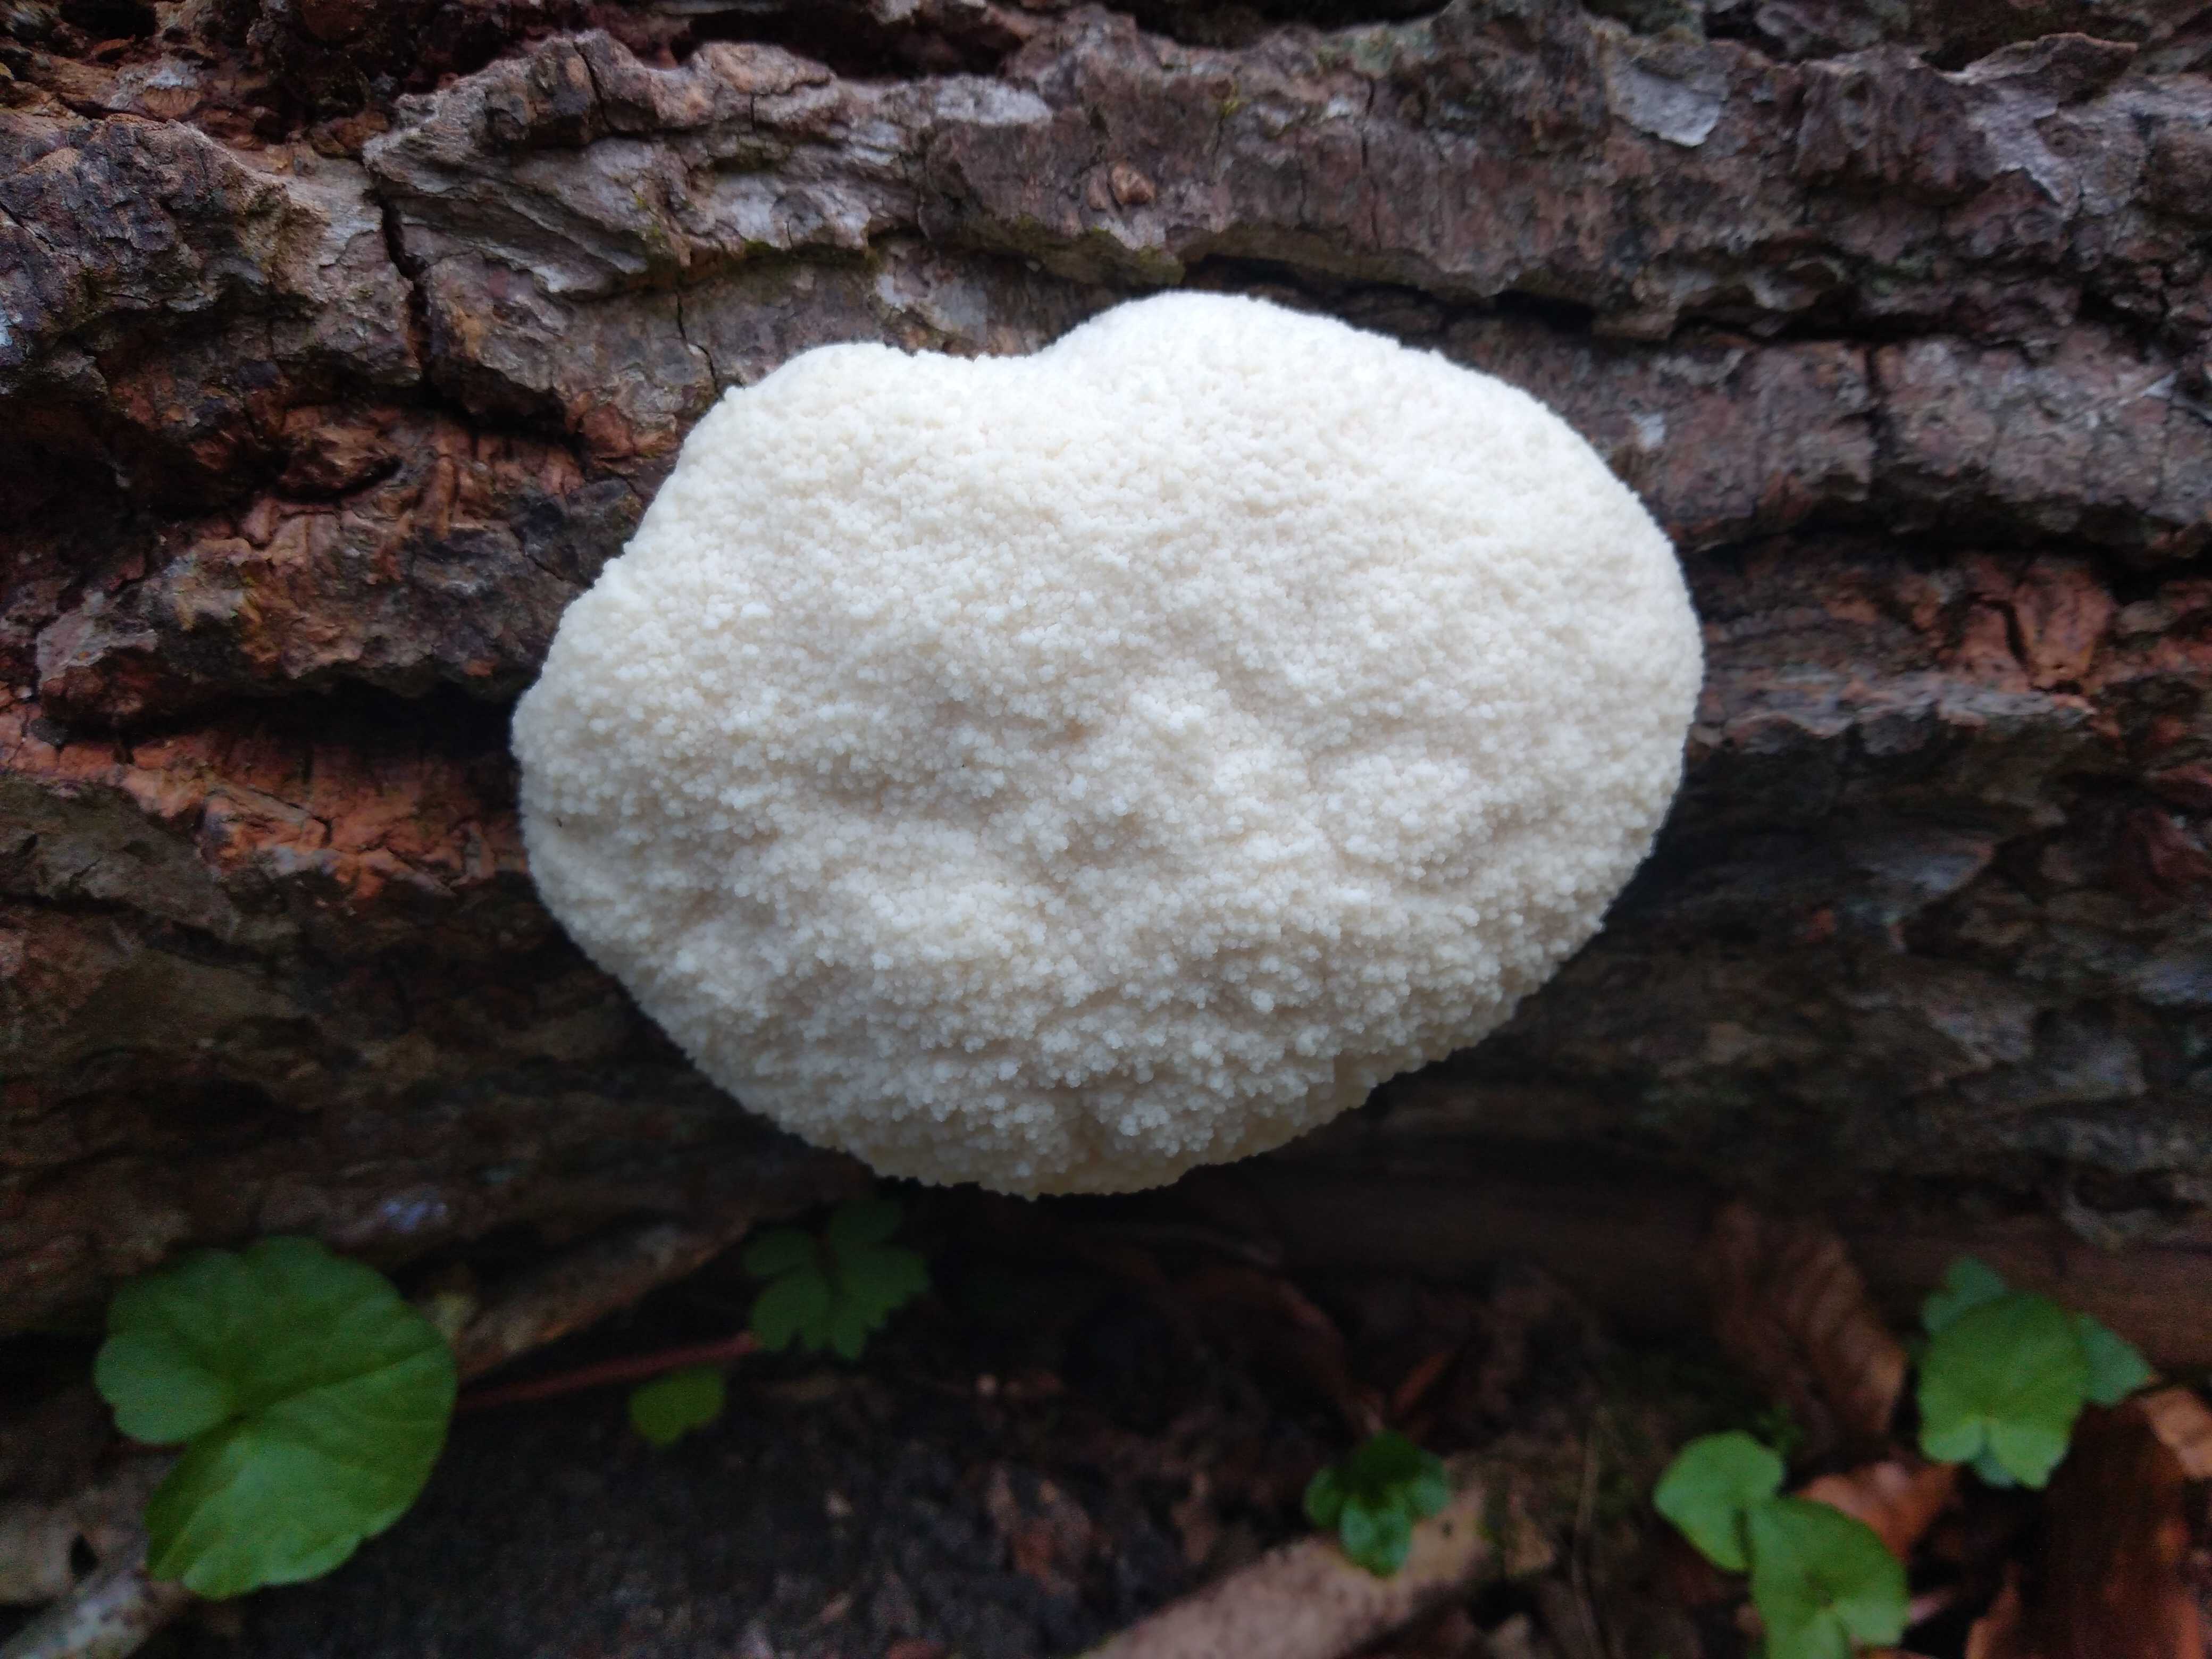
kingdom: Protozoa
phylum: Mycetozoa
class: Myxomycetes
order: Cribrariales
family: Tubiferaceae
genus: Reticularia
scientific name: Reticularia lycoperdon
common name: skinnende støvpude
